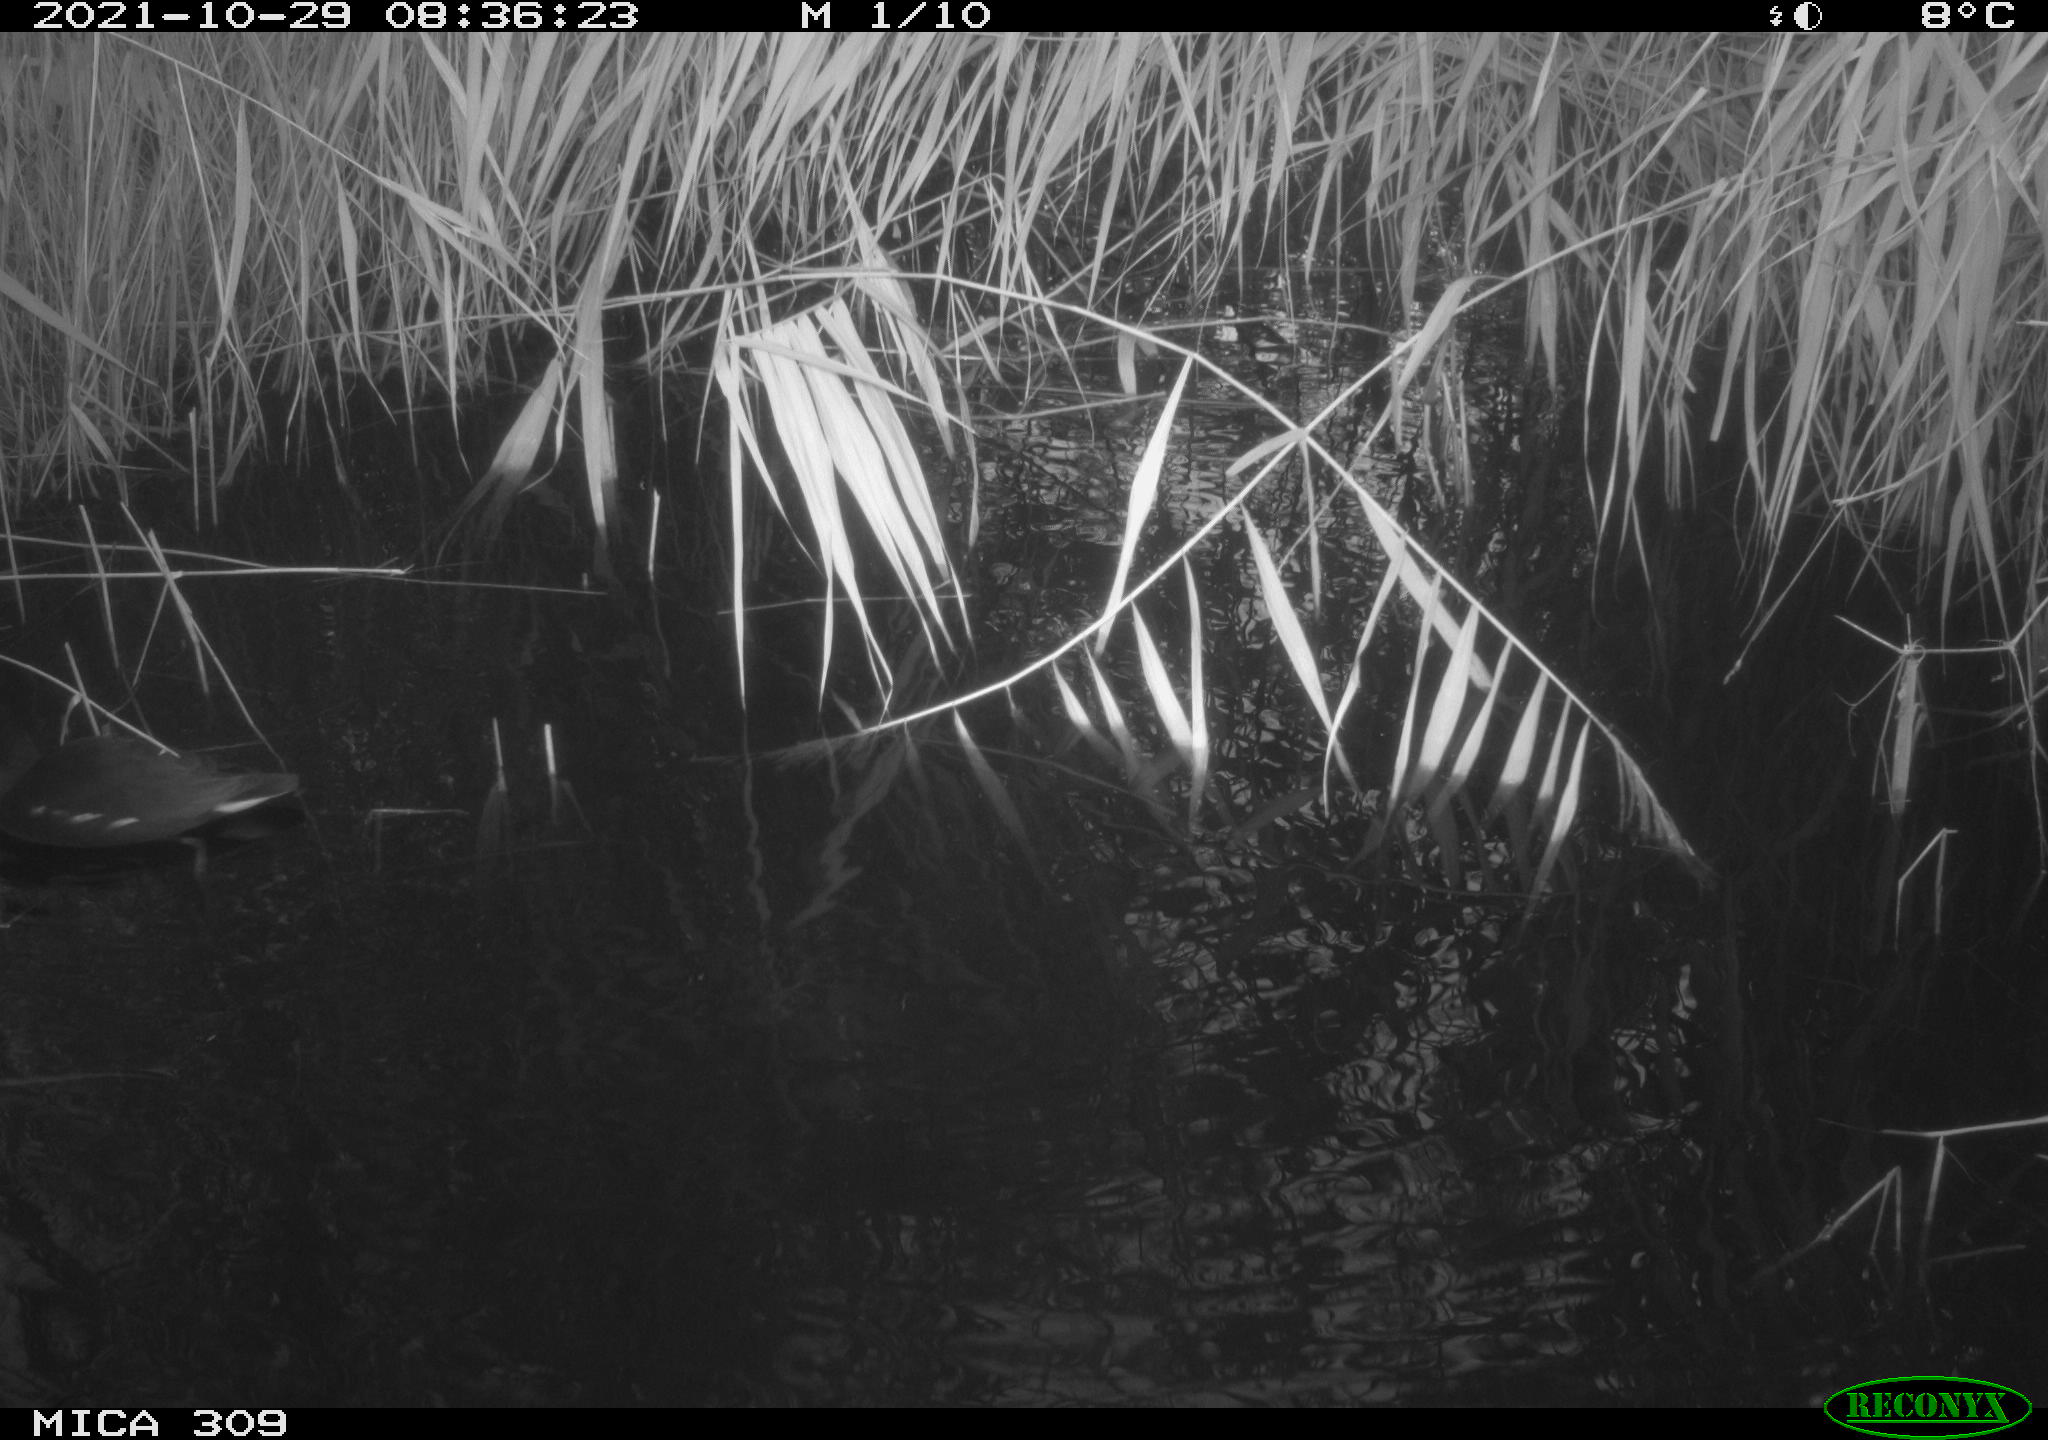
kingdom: Animalia
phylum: Chordata
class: Aves
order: Gruiformes
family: Rallidae
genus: Gallinula
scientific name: Gallinula chloropus
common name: Common moorhen
